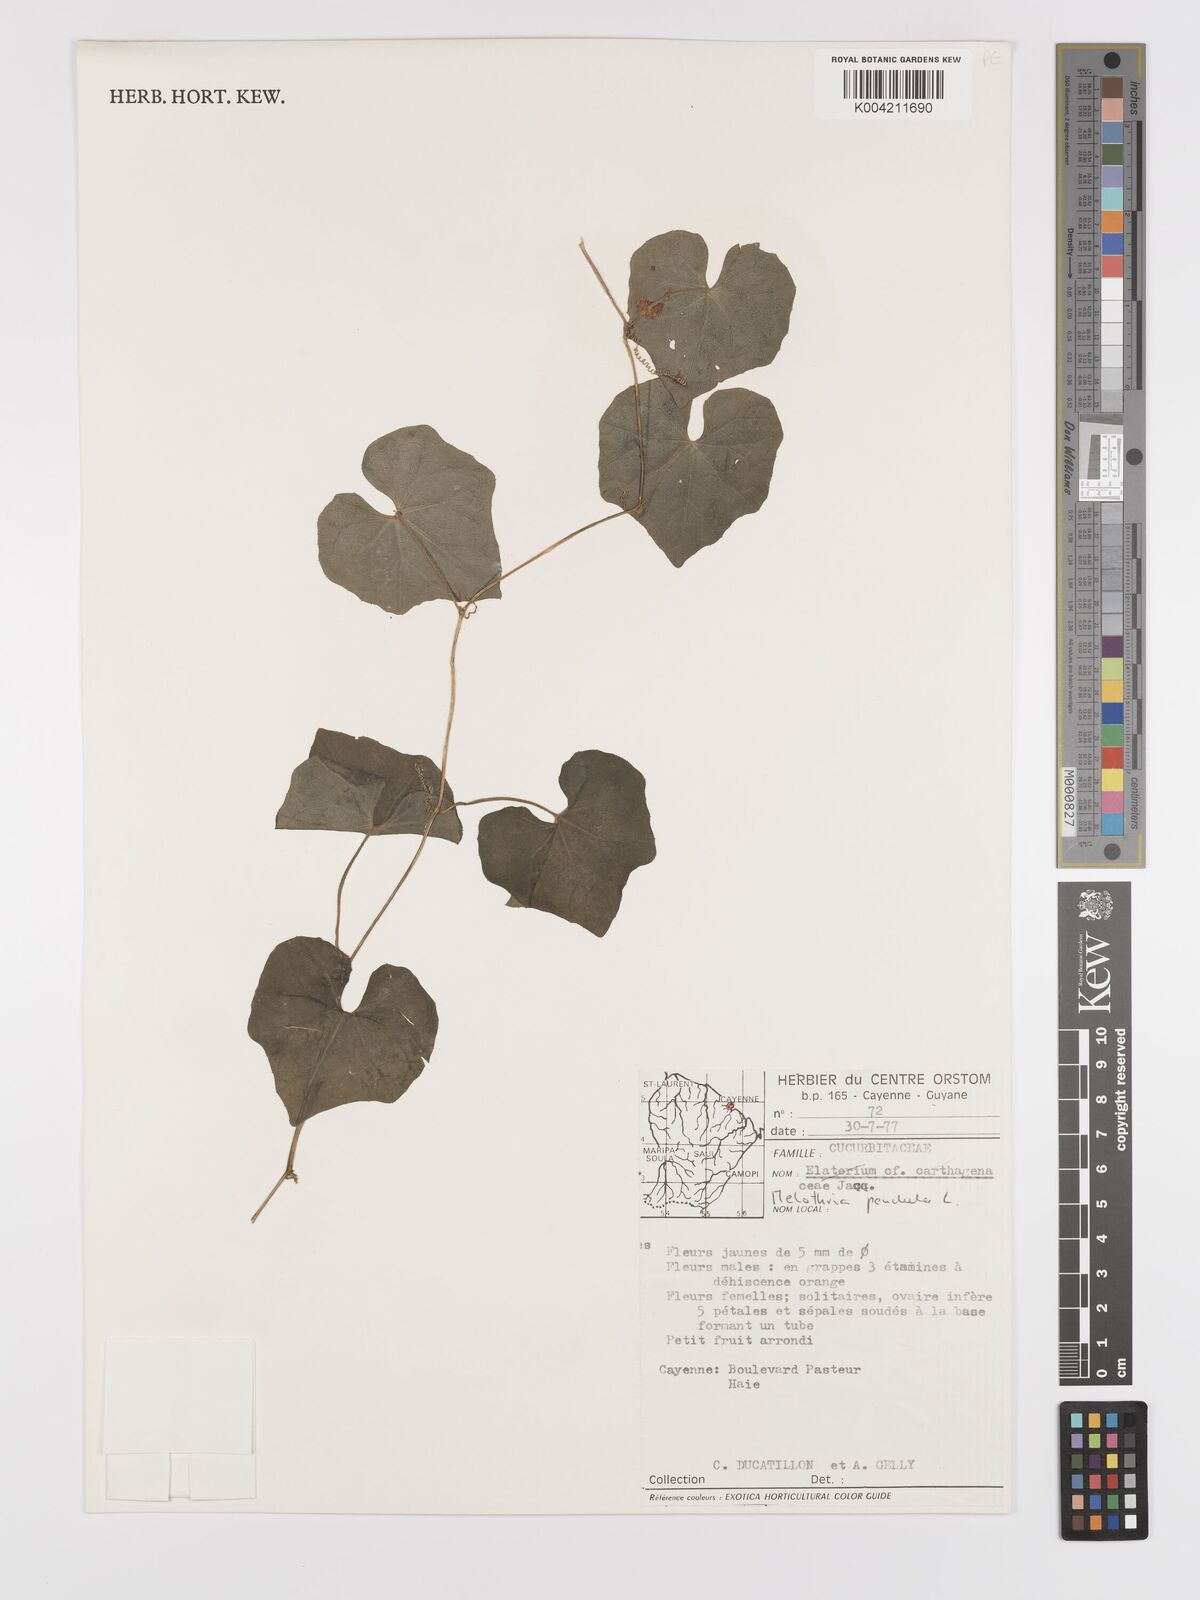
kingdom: Plantae
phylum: Tracheophyta
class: Magnoliopsida
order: Cucurbitales
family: Cucurbitaceae
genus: Melothria
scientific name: Melothria pendula
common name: Creeping-cucumber
